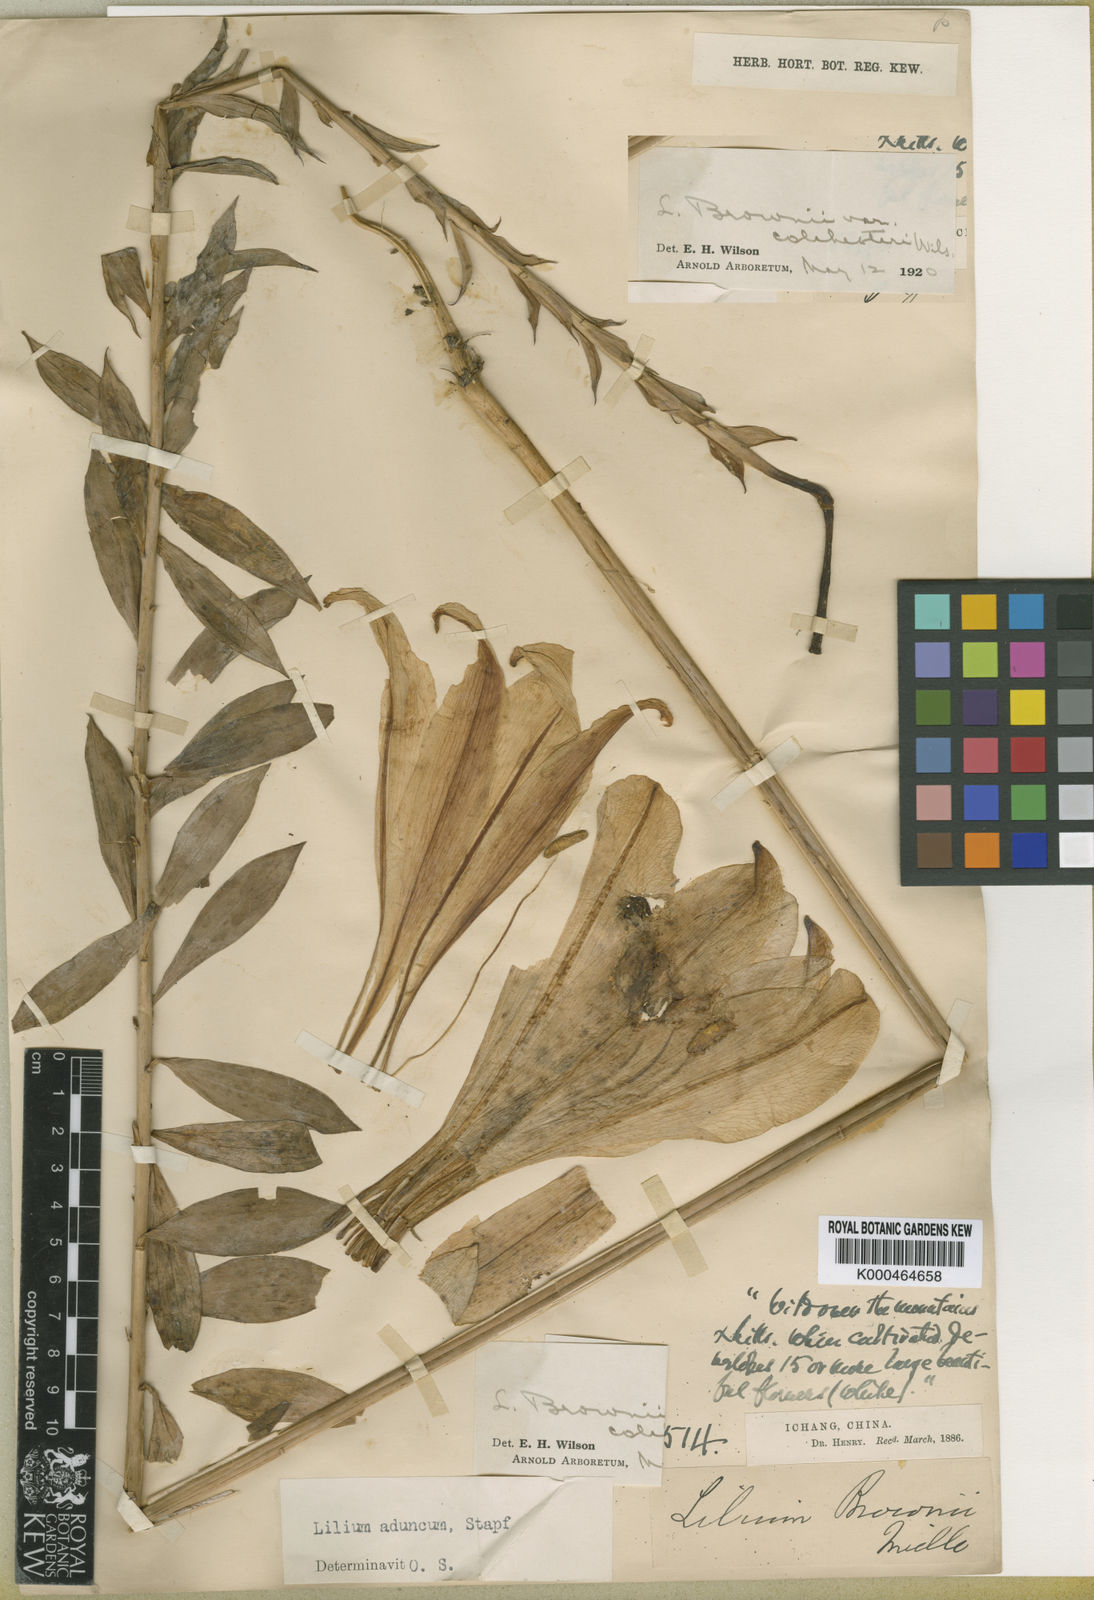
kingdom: Plantae
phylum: Tracheophyta
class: Liliopsida
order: Liliales
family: Liliaceae
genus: Lilium
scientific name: Lilium brownii
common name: Brown's lily
